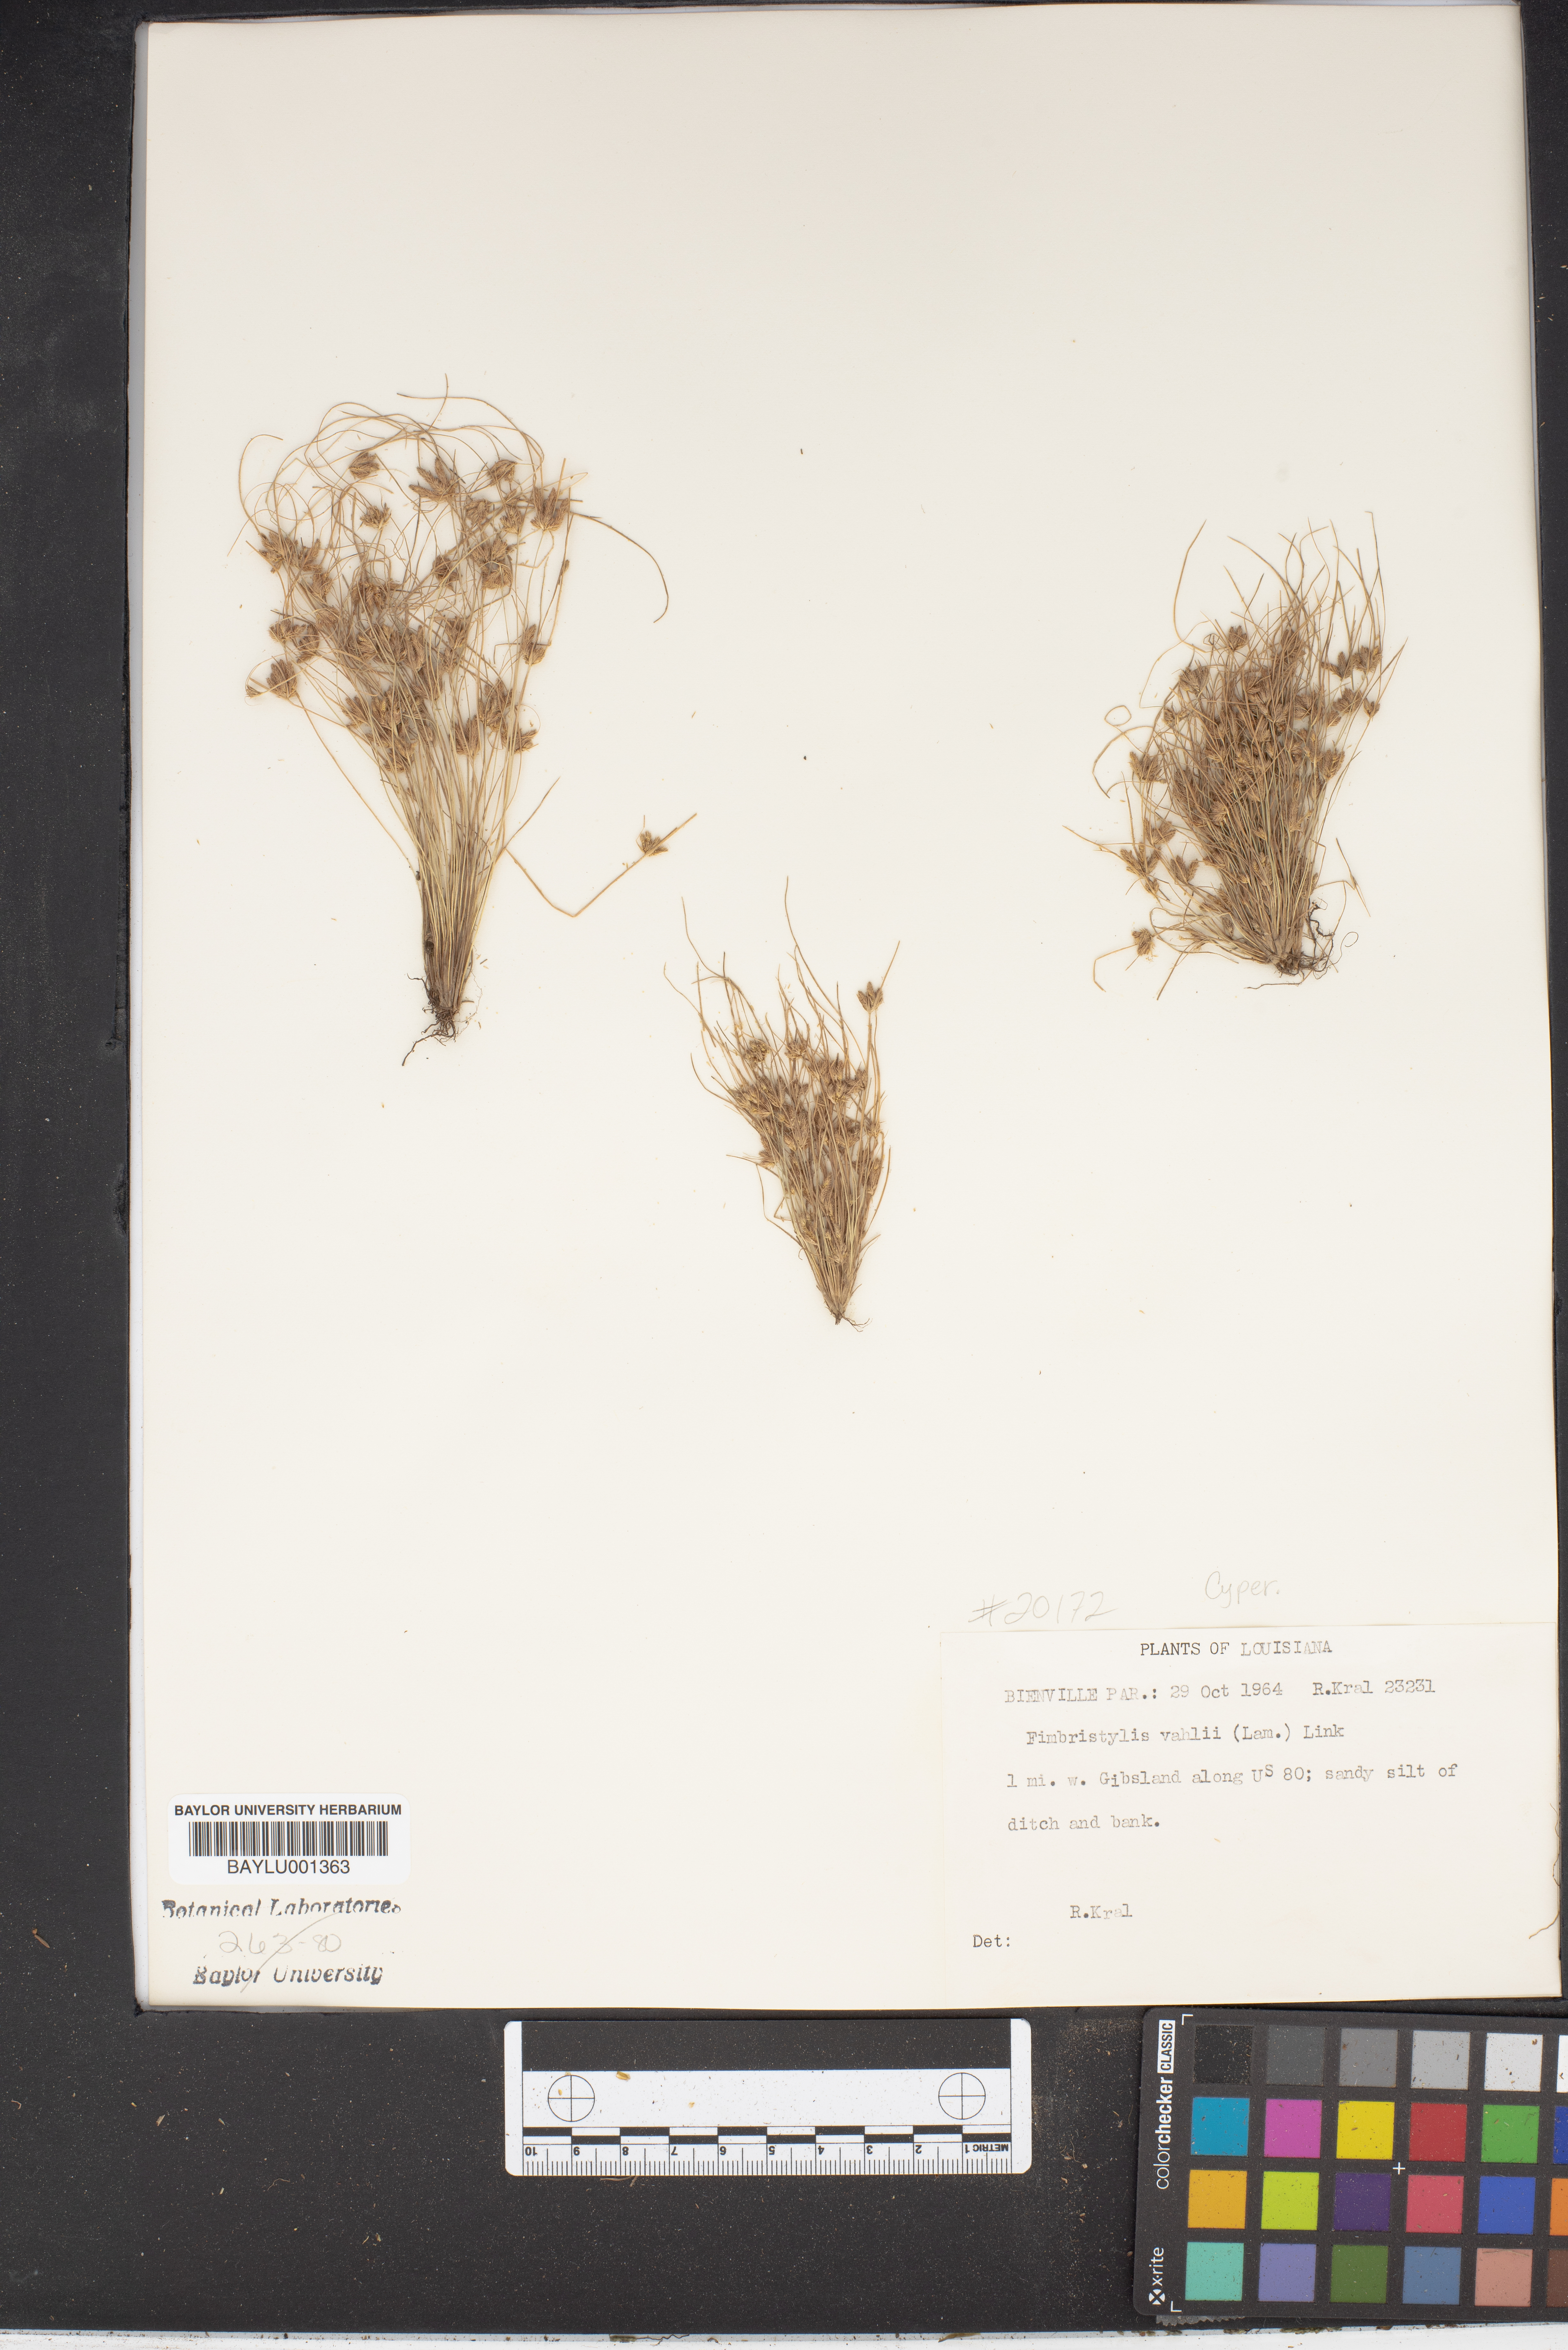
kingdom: Plantae
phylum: Tracheophyta
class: Liliopsida
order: Poales
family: Cyperaceae
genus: Fimbristylis
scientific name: Fimbristylis vahlii
